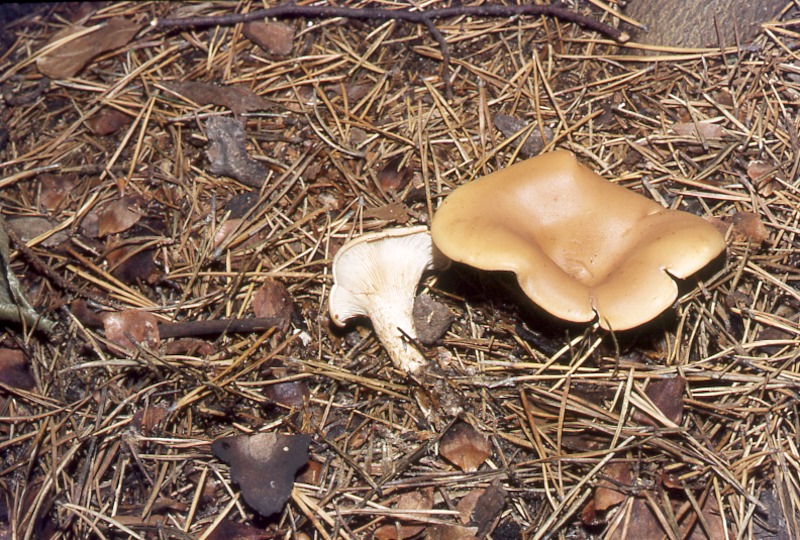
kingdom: Fungi
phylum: Basidiomycota
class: Agaricomycetes
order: Agaricales
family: Tricholomataceae
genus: Paralepista
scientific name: Paralepista flaccida
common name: Tawny funnel cap
